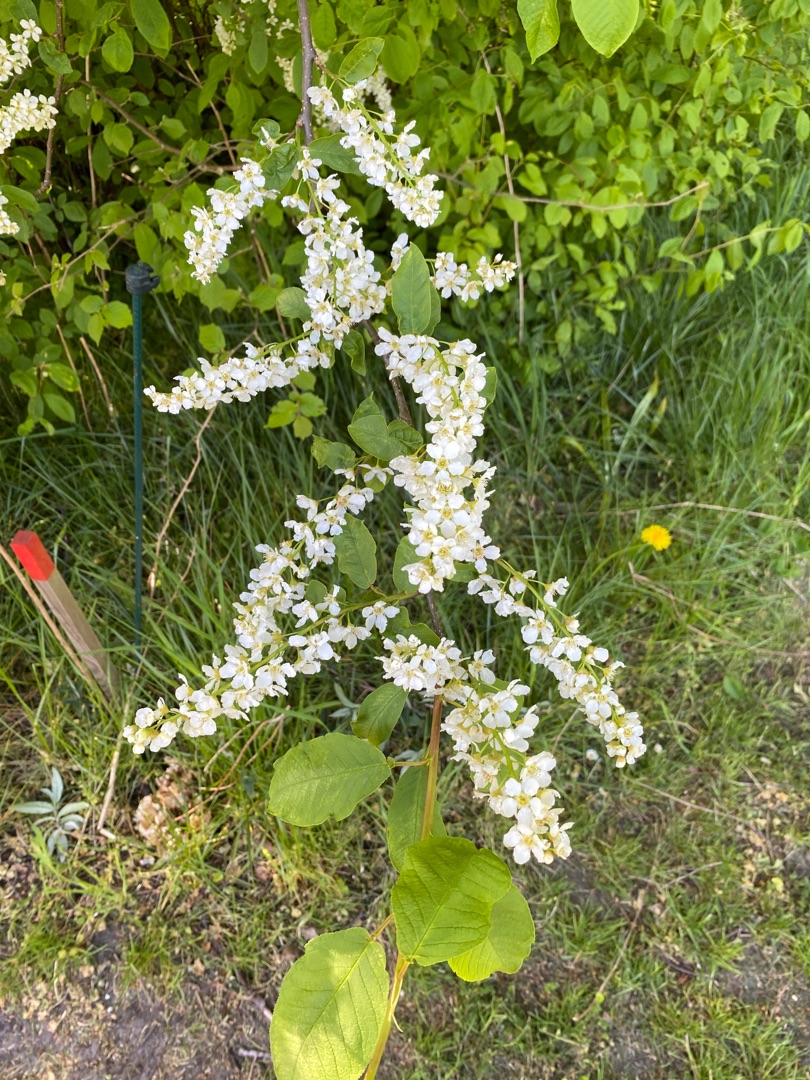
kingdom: Plantae
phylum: Tracheophyta
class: Magnoliopsida
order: Rosales
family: Rosaceae
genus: Prunus
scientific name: Prunus padus
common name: Almindelig hæg
